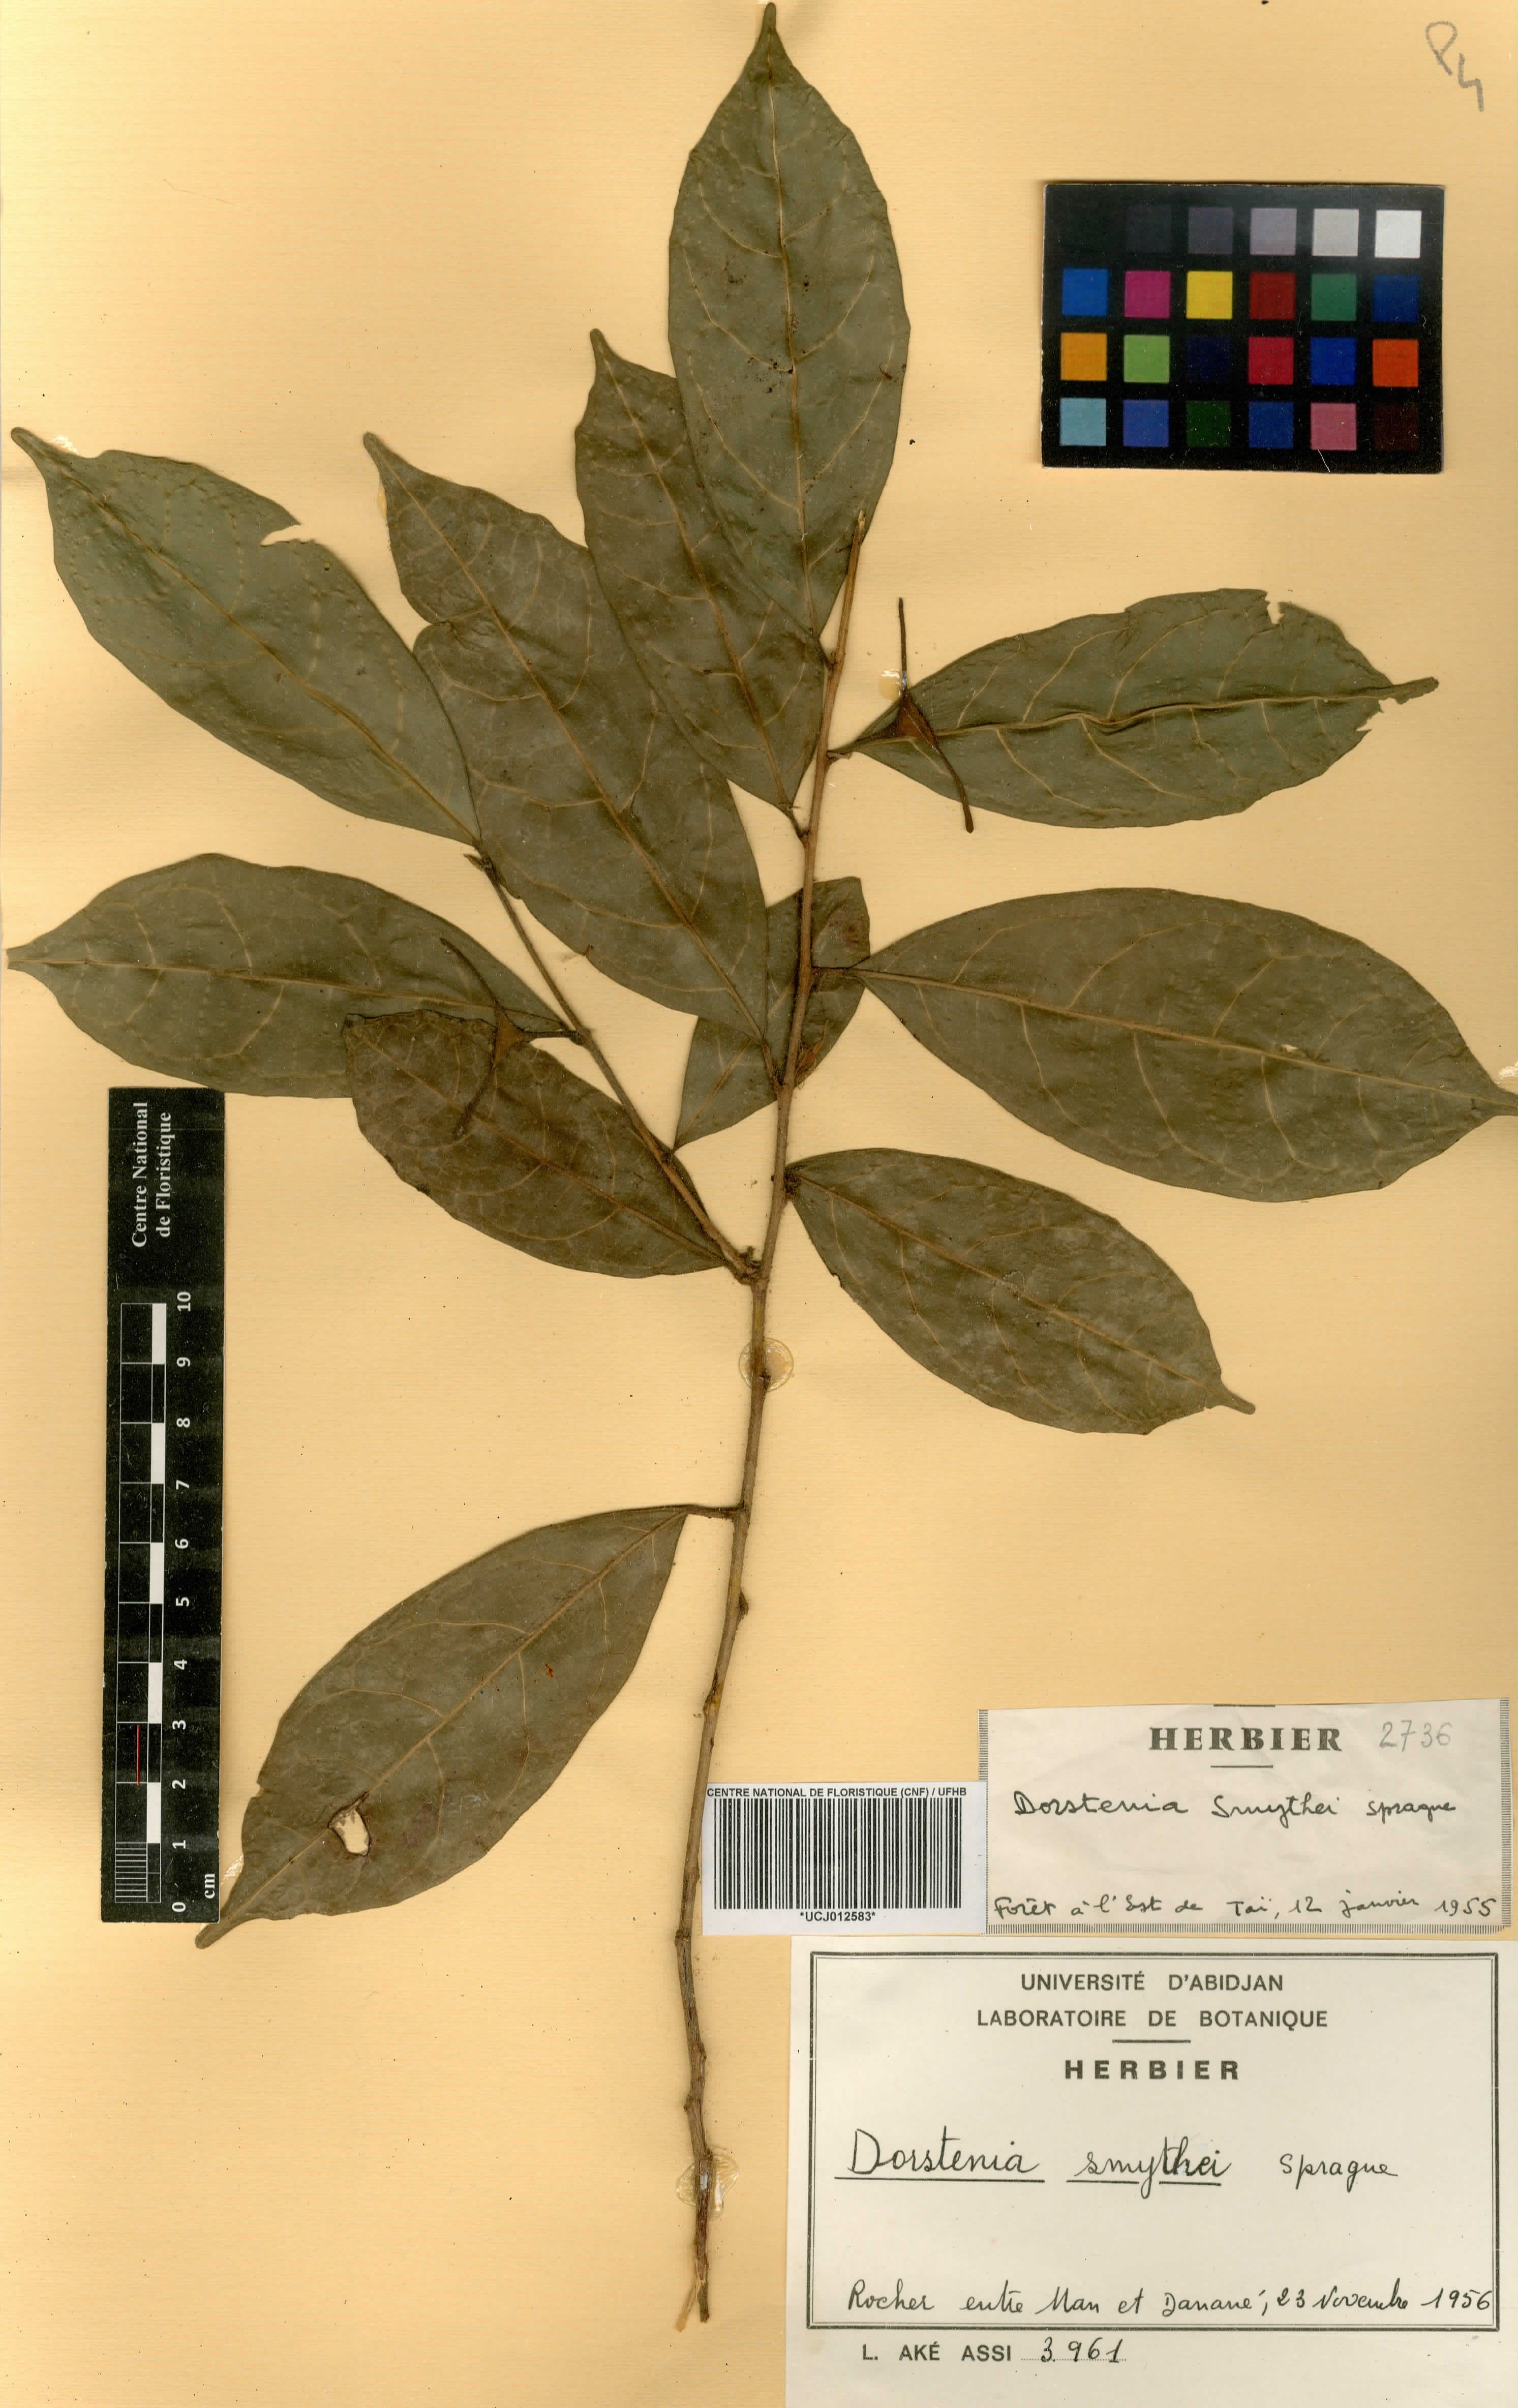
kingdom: Plantae
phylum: Tracheophyta
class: Magnoliopsida
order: Rosales
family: Moraceae
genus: Hijmania
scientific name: Hijmania turbinata
